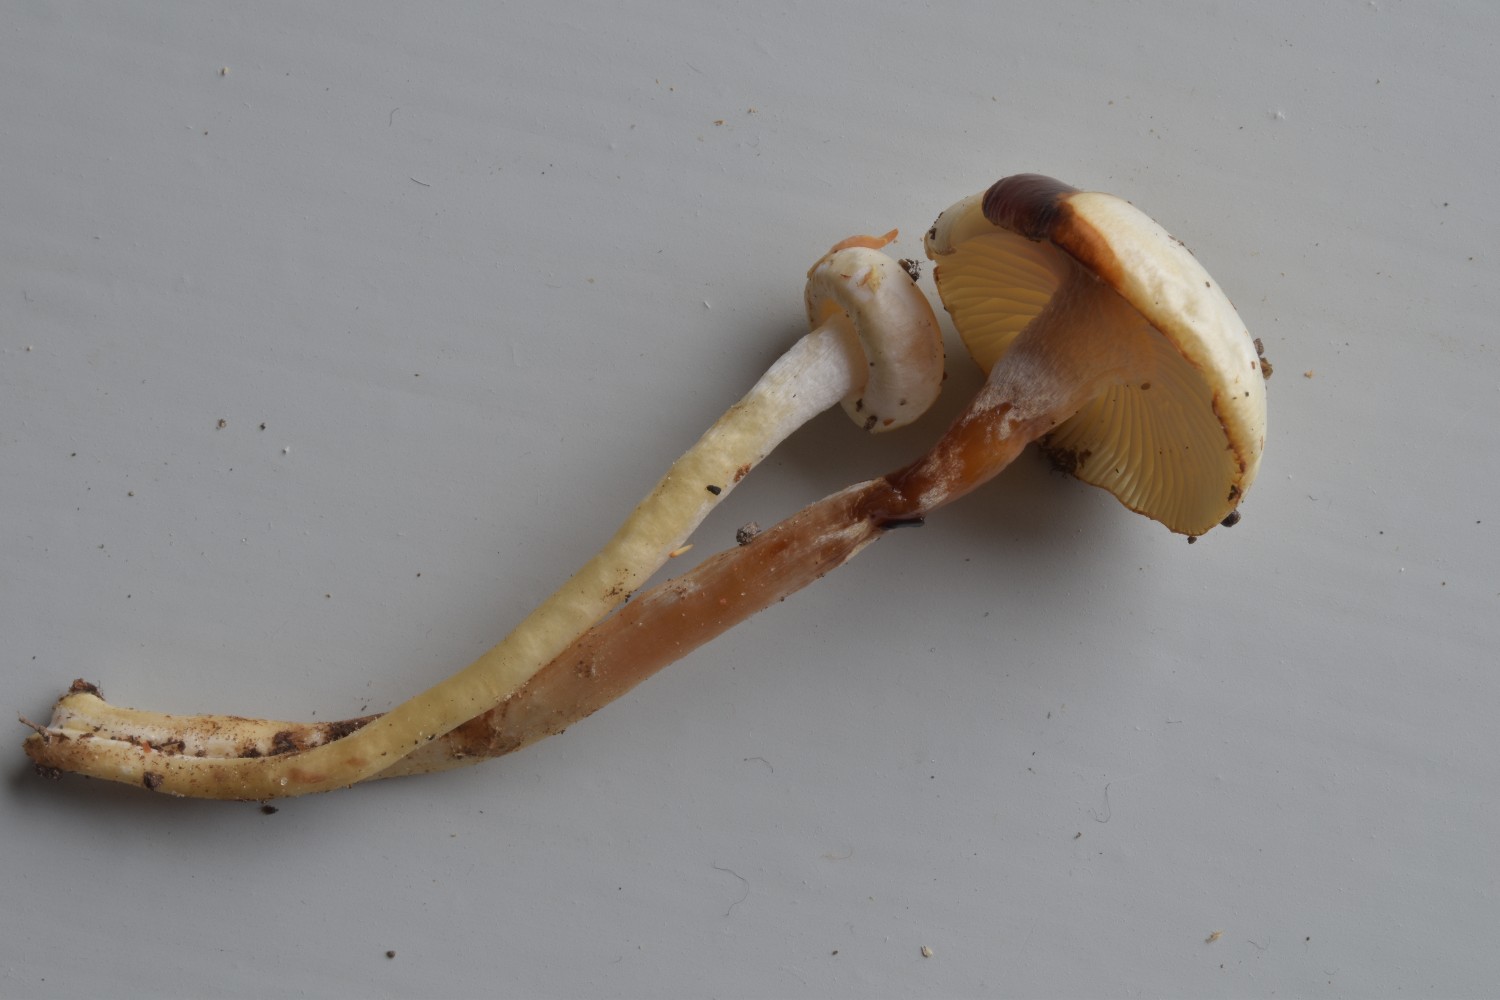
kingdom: Fungi
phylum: Basidiomycota
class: Agaricomycetes
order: Agaricales
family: Hygrophoraceae
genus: Hygrophorus
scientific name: Hygrophorus discoxanthus
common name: ildelugtende sneglehat
